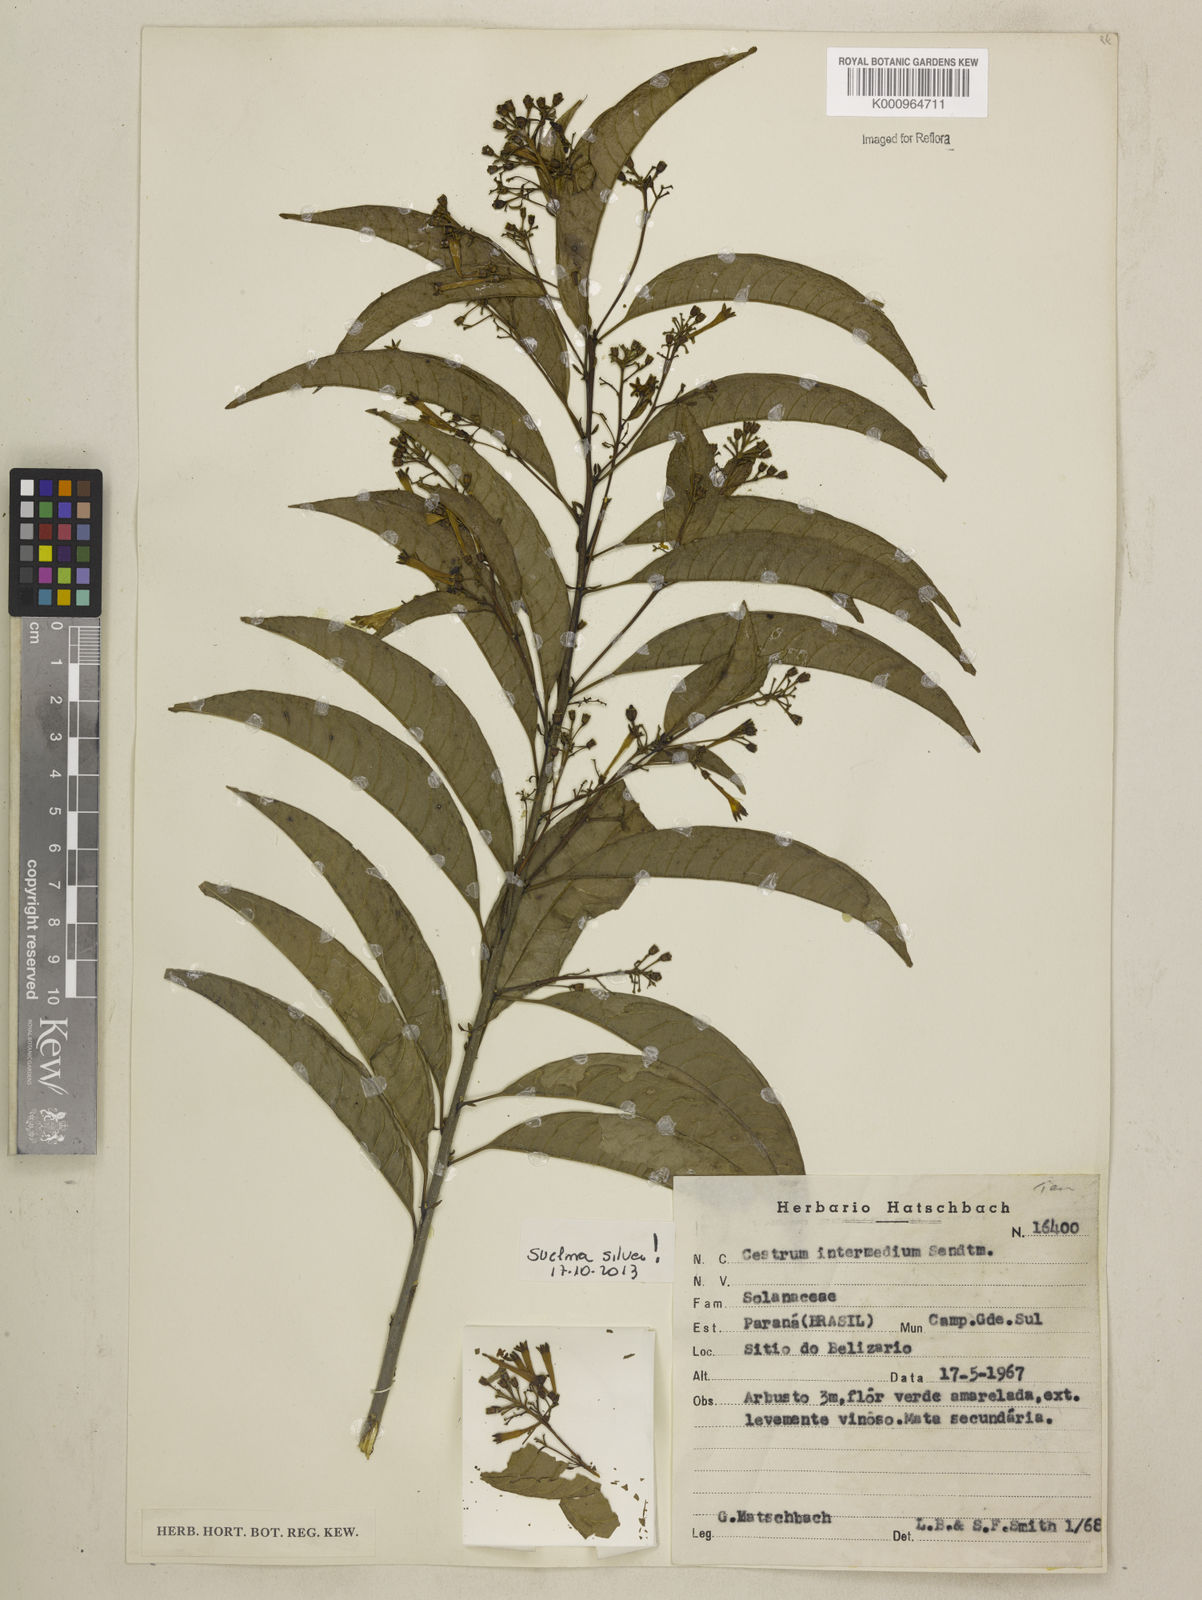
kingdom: Plantae
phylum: Tracheophyta
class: Magnoliopsida
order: Solanales
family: Solanaceae
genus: Cestrum
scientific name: Cestrum intermedium
